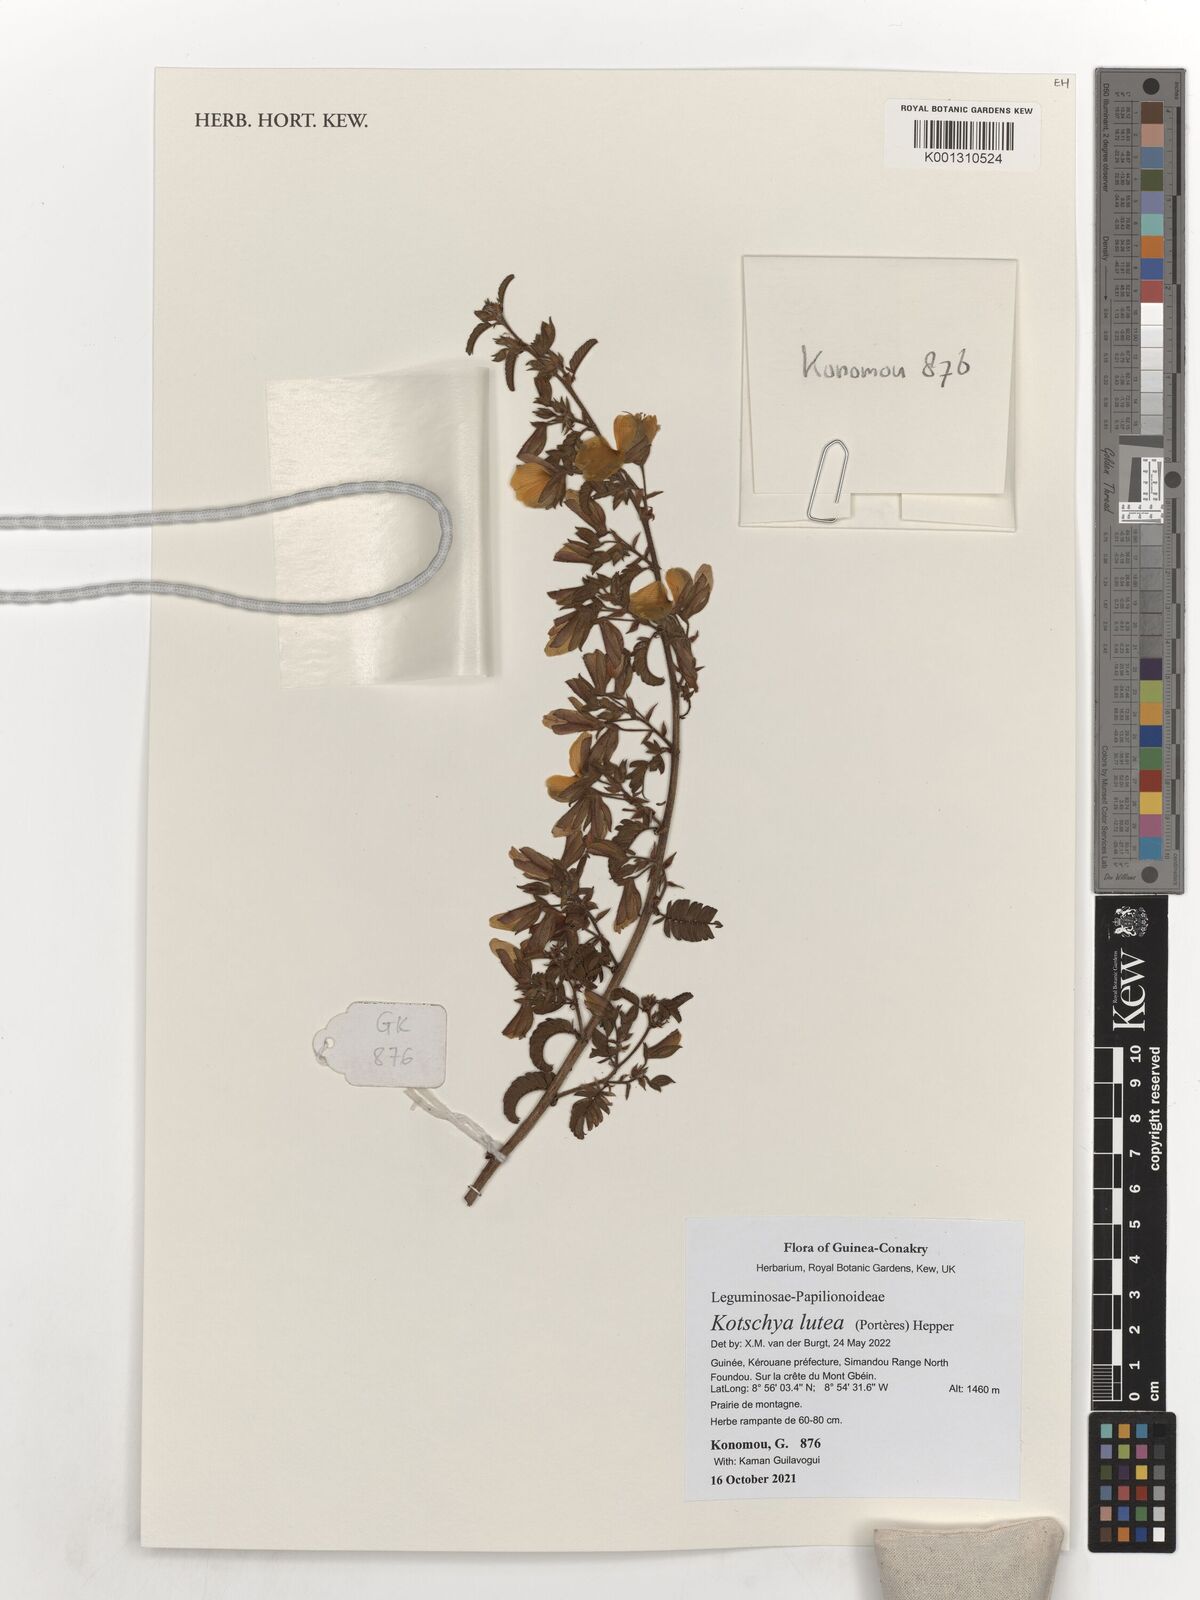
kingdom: Plantae
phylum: Tracheophyta
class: Magnoliopsida
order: Fabales
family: Fabaceae
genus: Kotschya
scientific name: Kotschya lutea
